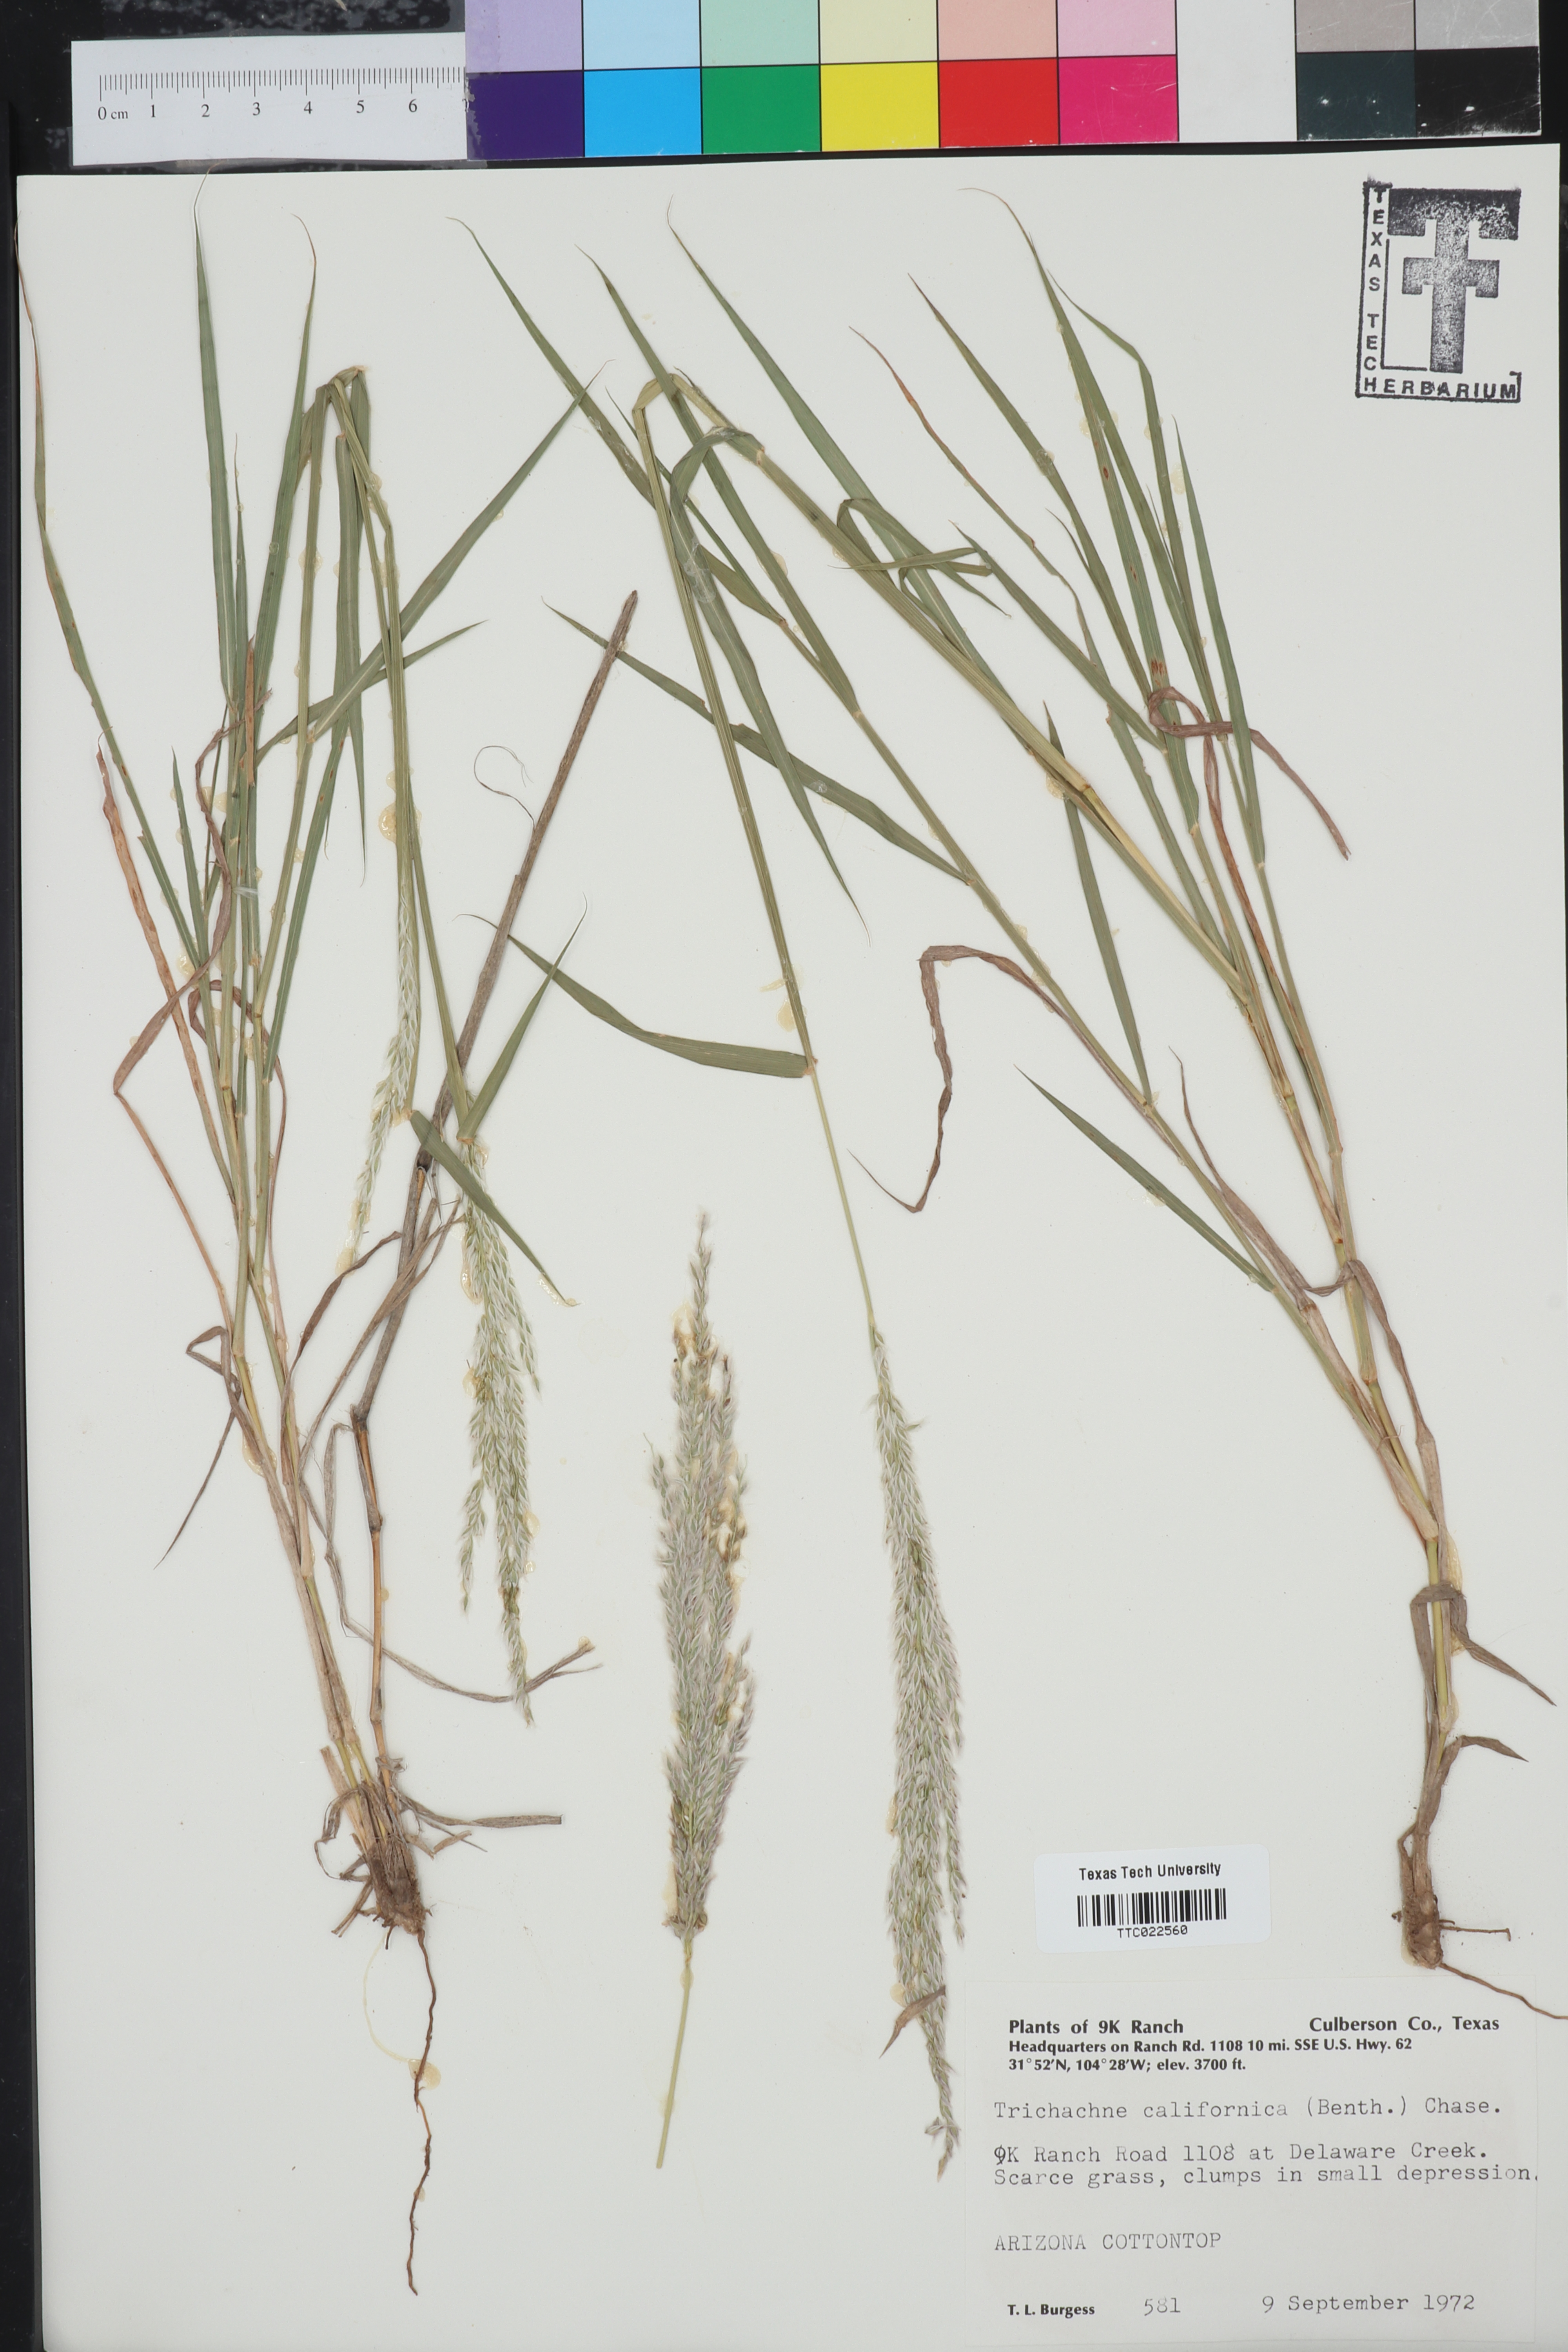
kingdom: Plantae
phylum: Tracheophyta
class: Liliopsida
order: Poales
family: Poaceae
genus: Digitaria
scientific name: Digitaria californica
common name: Arizona cottontop
